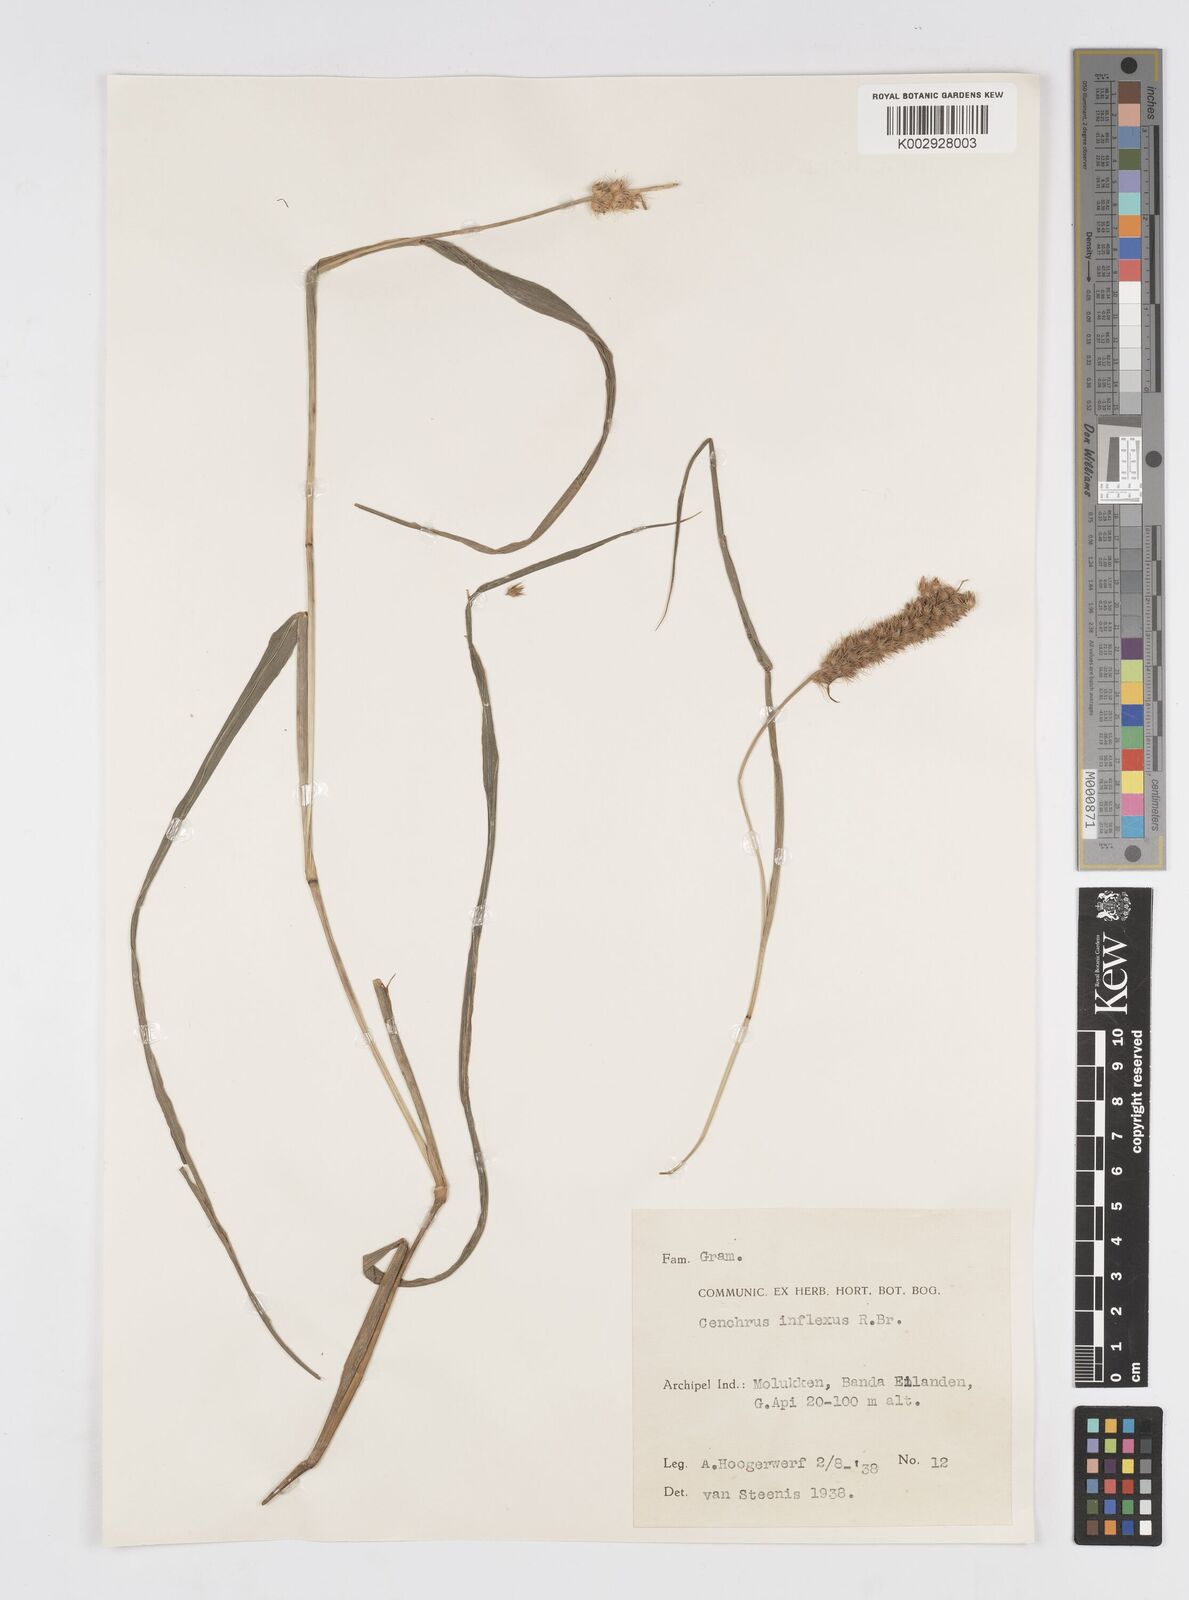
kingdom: Plantae
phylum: Tracheophyta
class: Liliopsida
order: Poales
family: Poaceae
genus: Cenchrus
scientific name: Cenchrus brownii
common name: Slim-bristle sandbur
